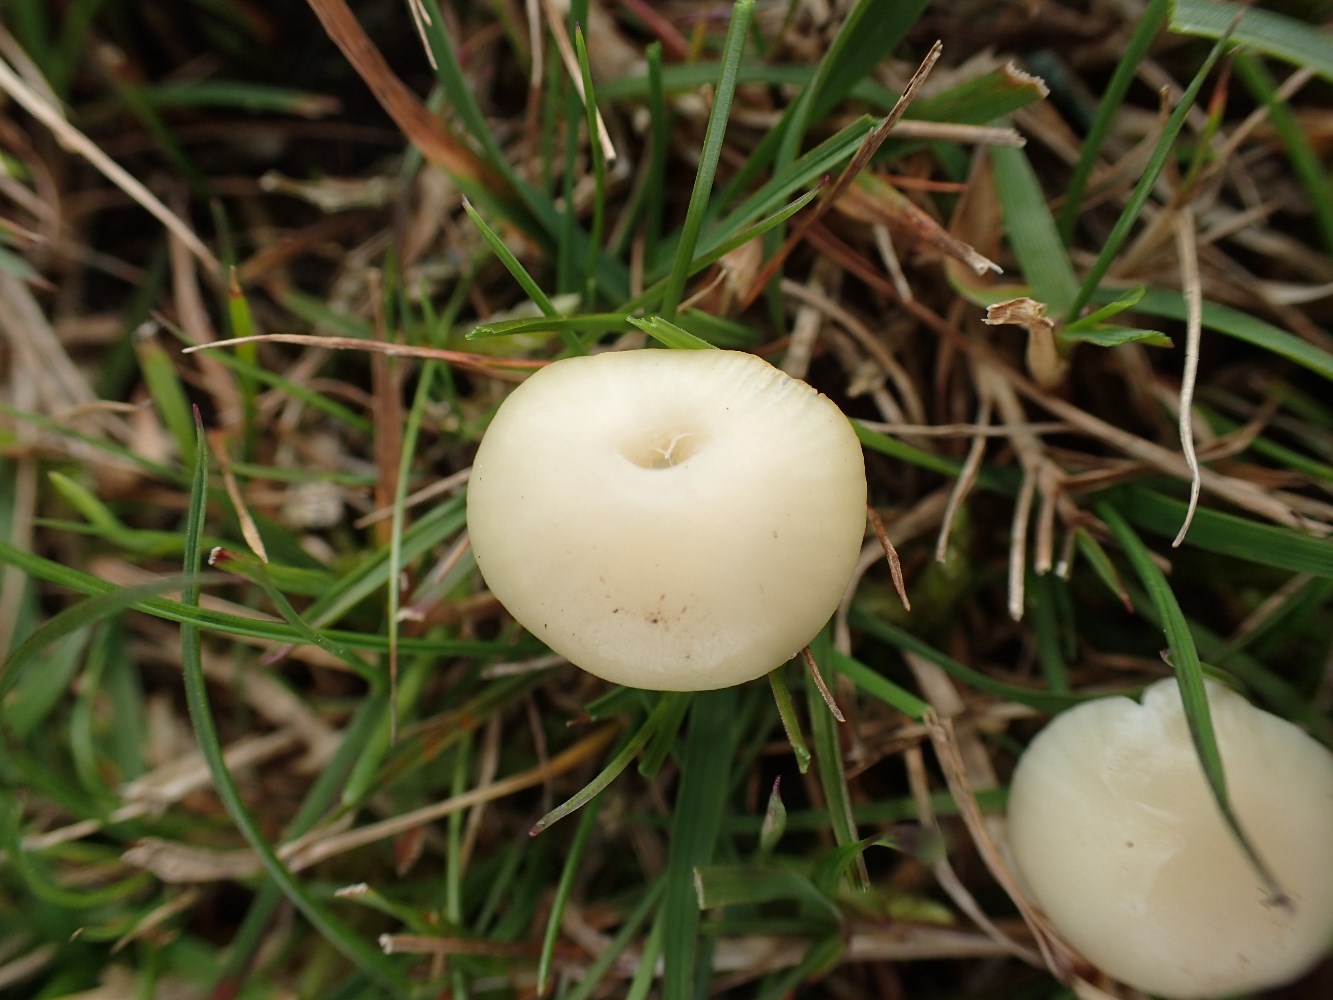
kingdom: Fungi
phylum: Basidiomycota
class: Agaricomycetes
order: Agaricales
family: Hygrophoraceae
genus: Cuphophyllus
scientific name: Cuphophyllus virgineus
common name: snehvid vokshat
